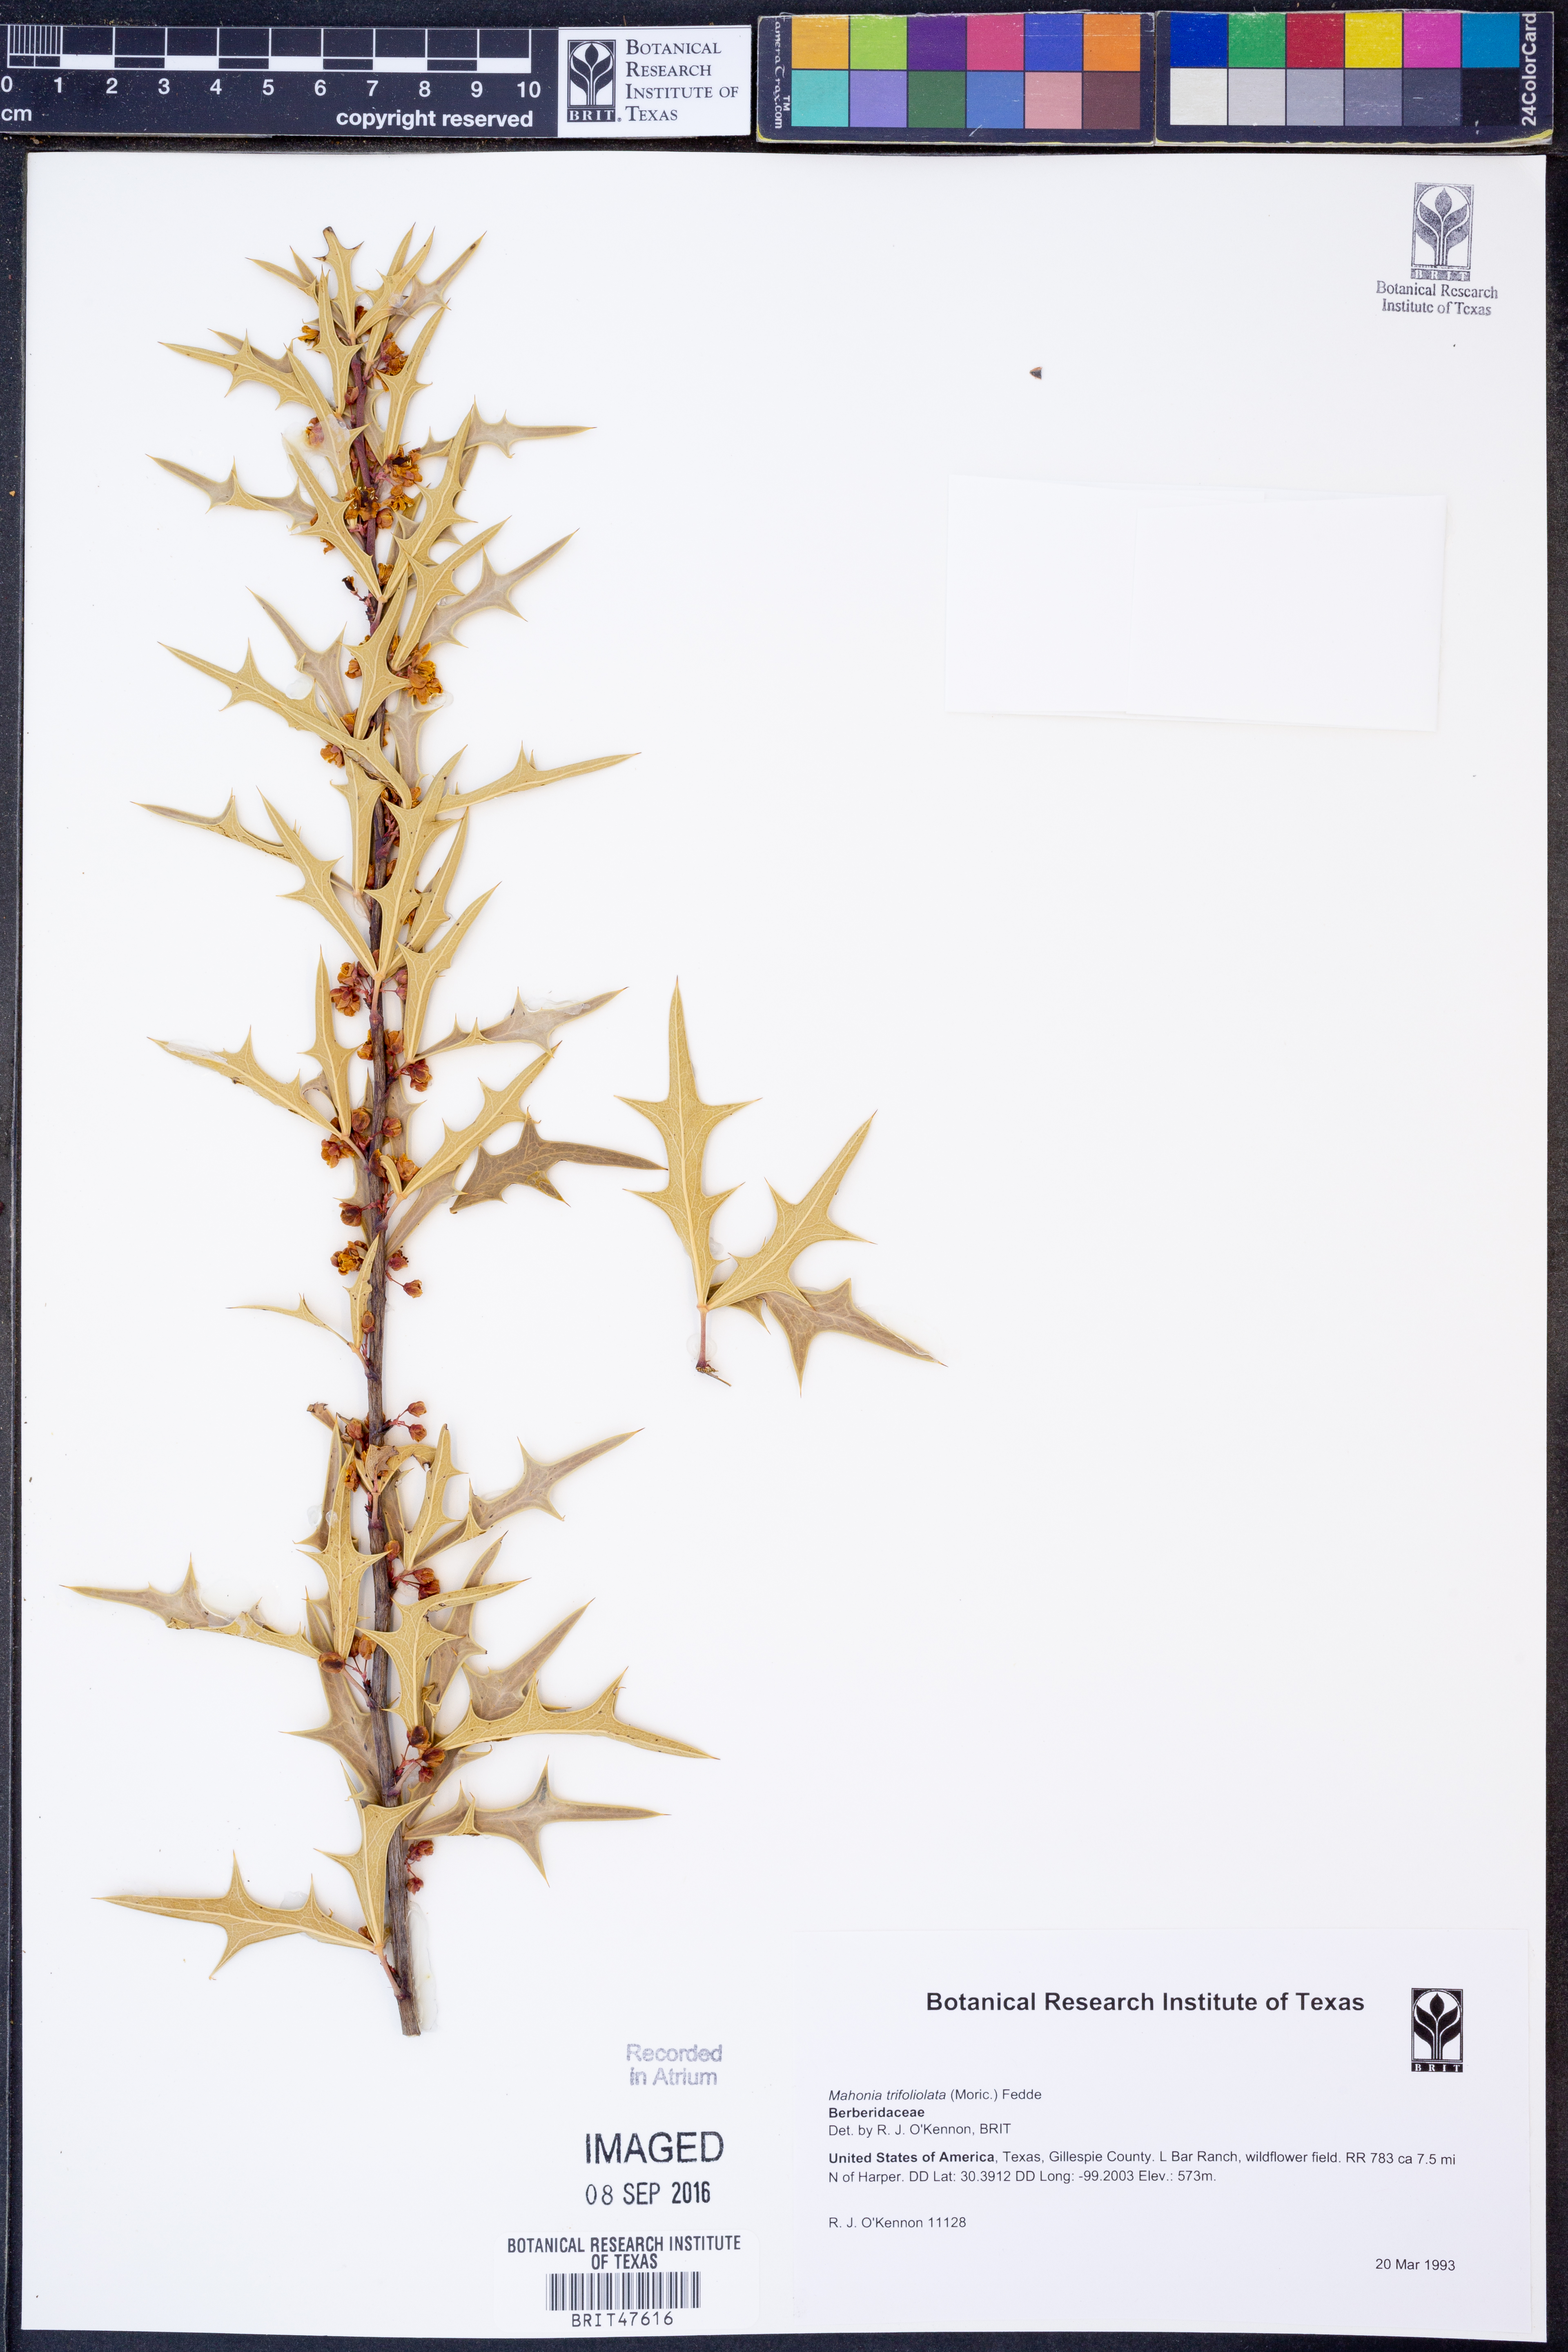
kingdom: Plantae
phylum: Tracheophyta
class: Magnoliopsida
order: Ranunculales
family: Berberidaceae
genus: Alloberberis
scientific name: Alloberberis trifoliolata
